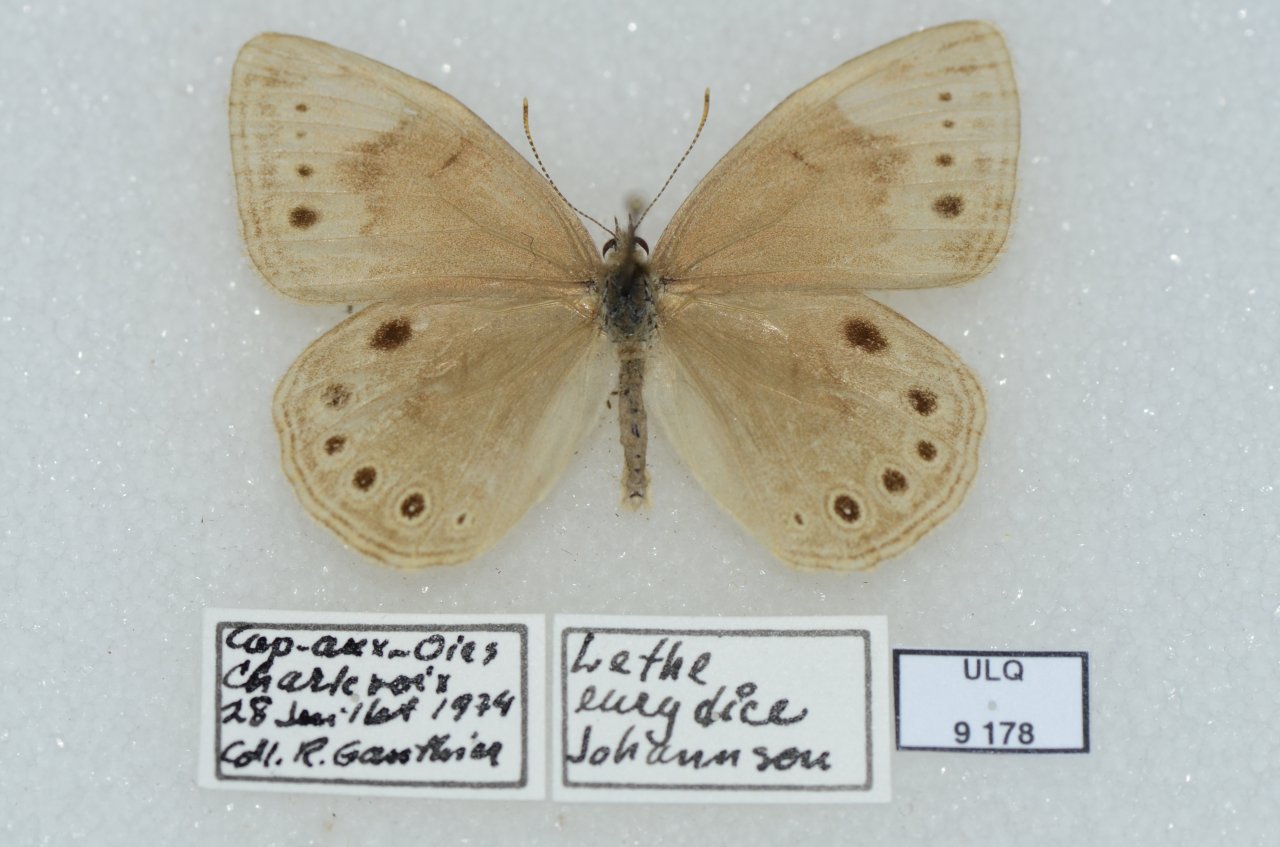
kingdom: Animalia
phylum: Arthropoda
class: Insecta
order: Lepidoptera
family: Nymphalidae
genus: Lethe
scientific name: Lethe eurydice
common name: Eyed Brown
